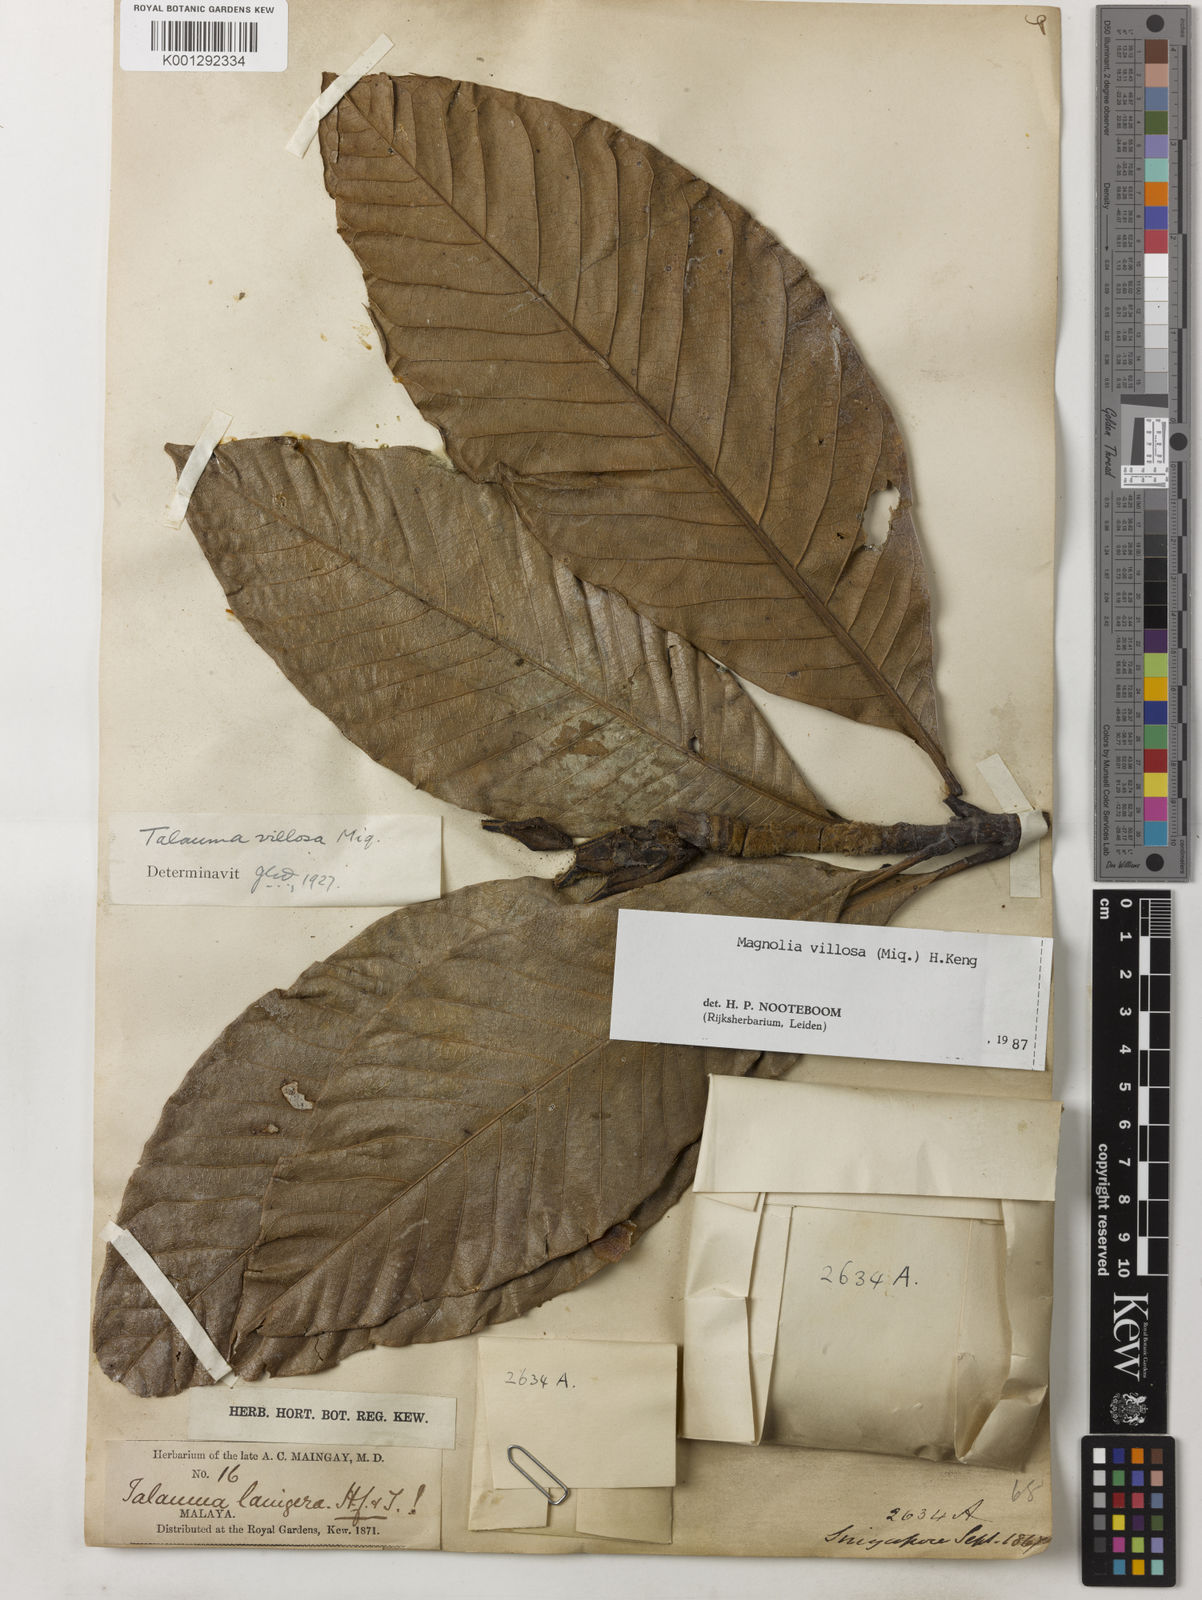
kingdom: Plantae
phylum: Tracheophyta
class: Magnoliopsida
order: Magnoliales
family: Magnoliaceae
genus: Magnolia
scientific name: Magnolia villosa
